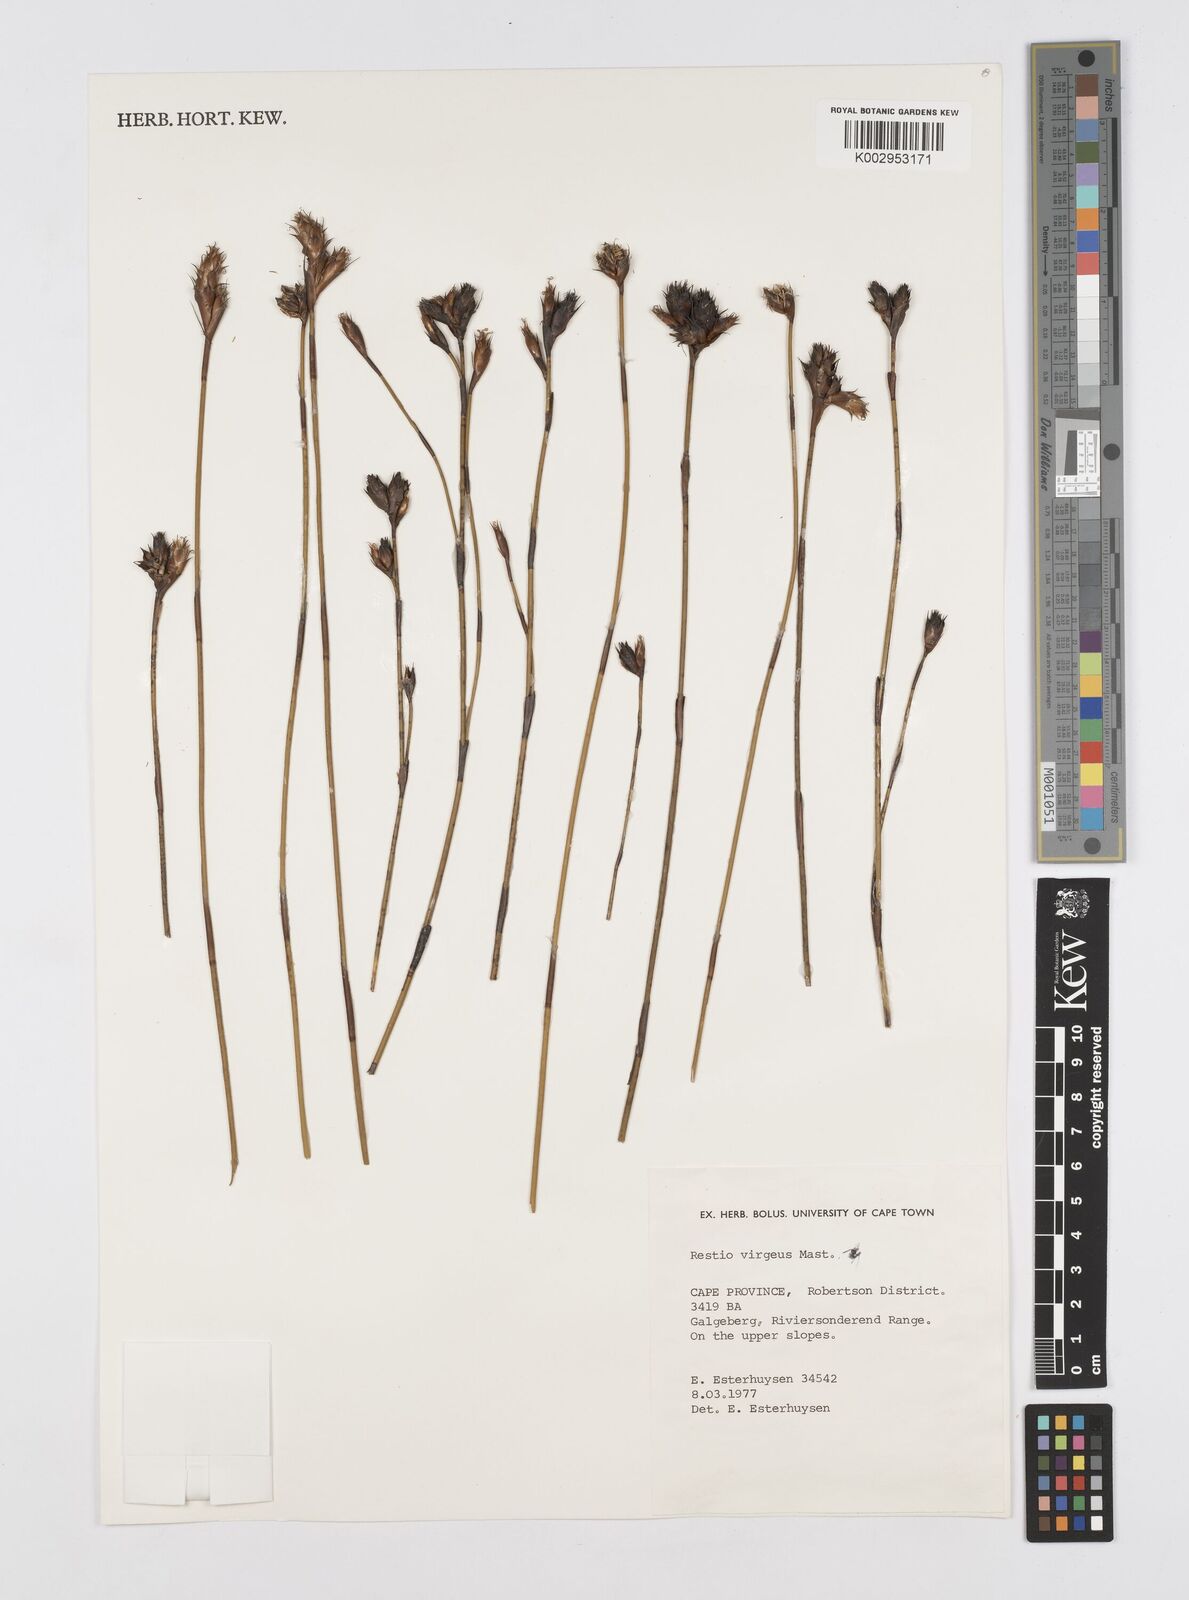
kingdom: Plantae
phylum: Tracheophyta
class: Liliopsida
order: Poales
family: Restionaceae
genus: Restio
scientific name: Restio virgeus
